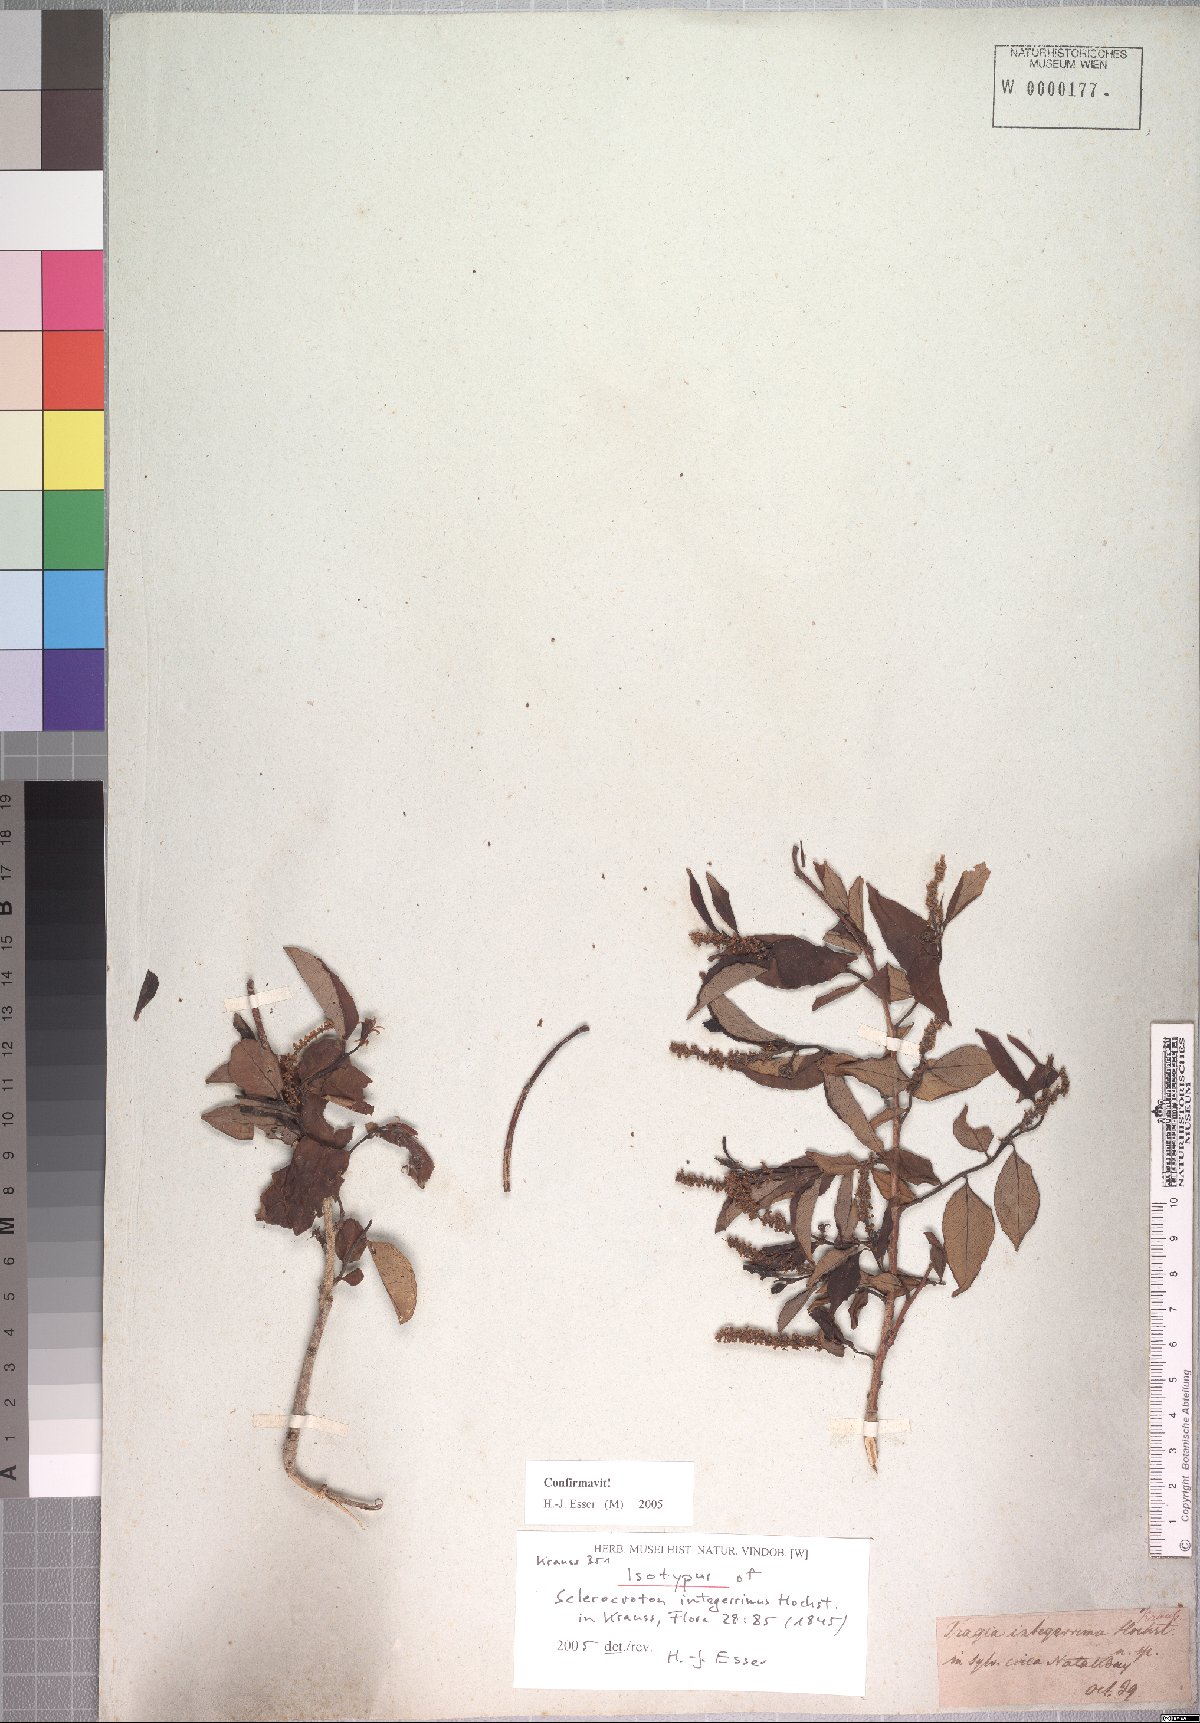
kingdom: Plantae
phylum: Tracheophyta
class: Magnoliopsida
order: Malpighiales
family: Euphorbiaceae
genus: Sclerocroton
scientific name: Sclerocroton integerrimus
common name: Duiker berry
